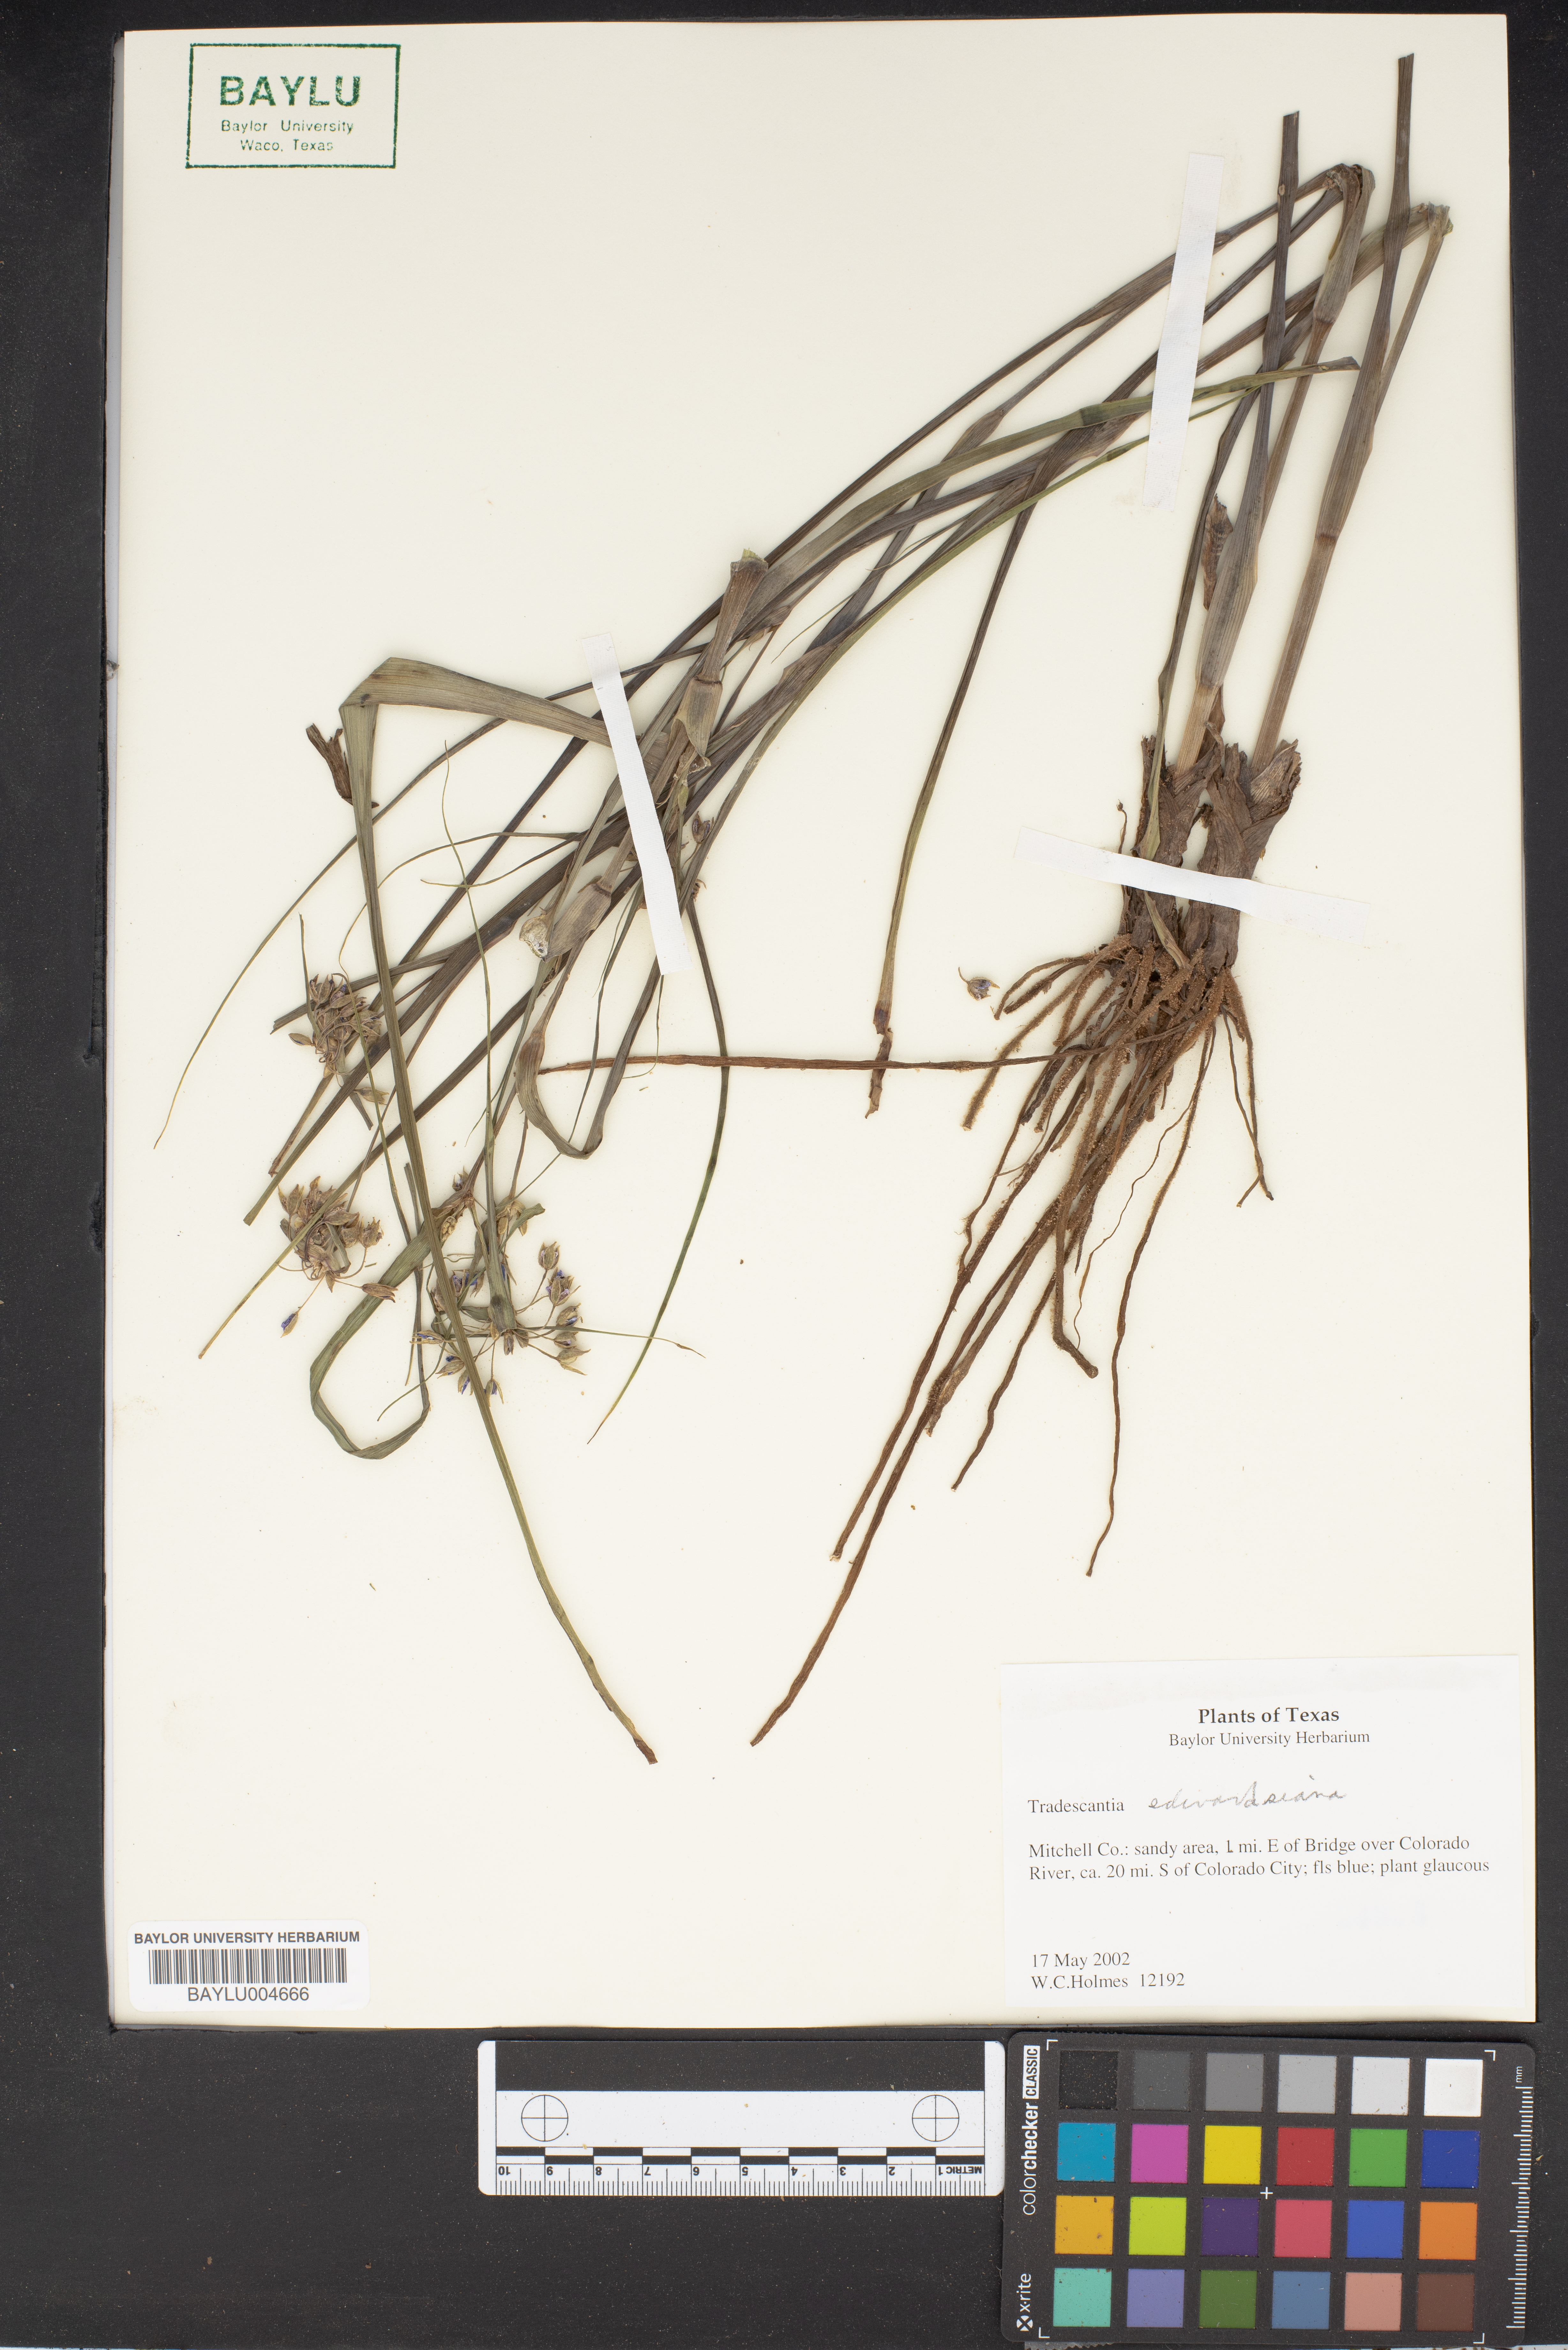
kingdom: Plantae
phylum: Tracheophyta
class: Liliopsida
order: Commelinales
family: Commelinaceae
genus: Tradescantia
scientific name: Tradescantia edwardsiana
